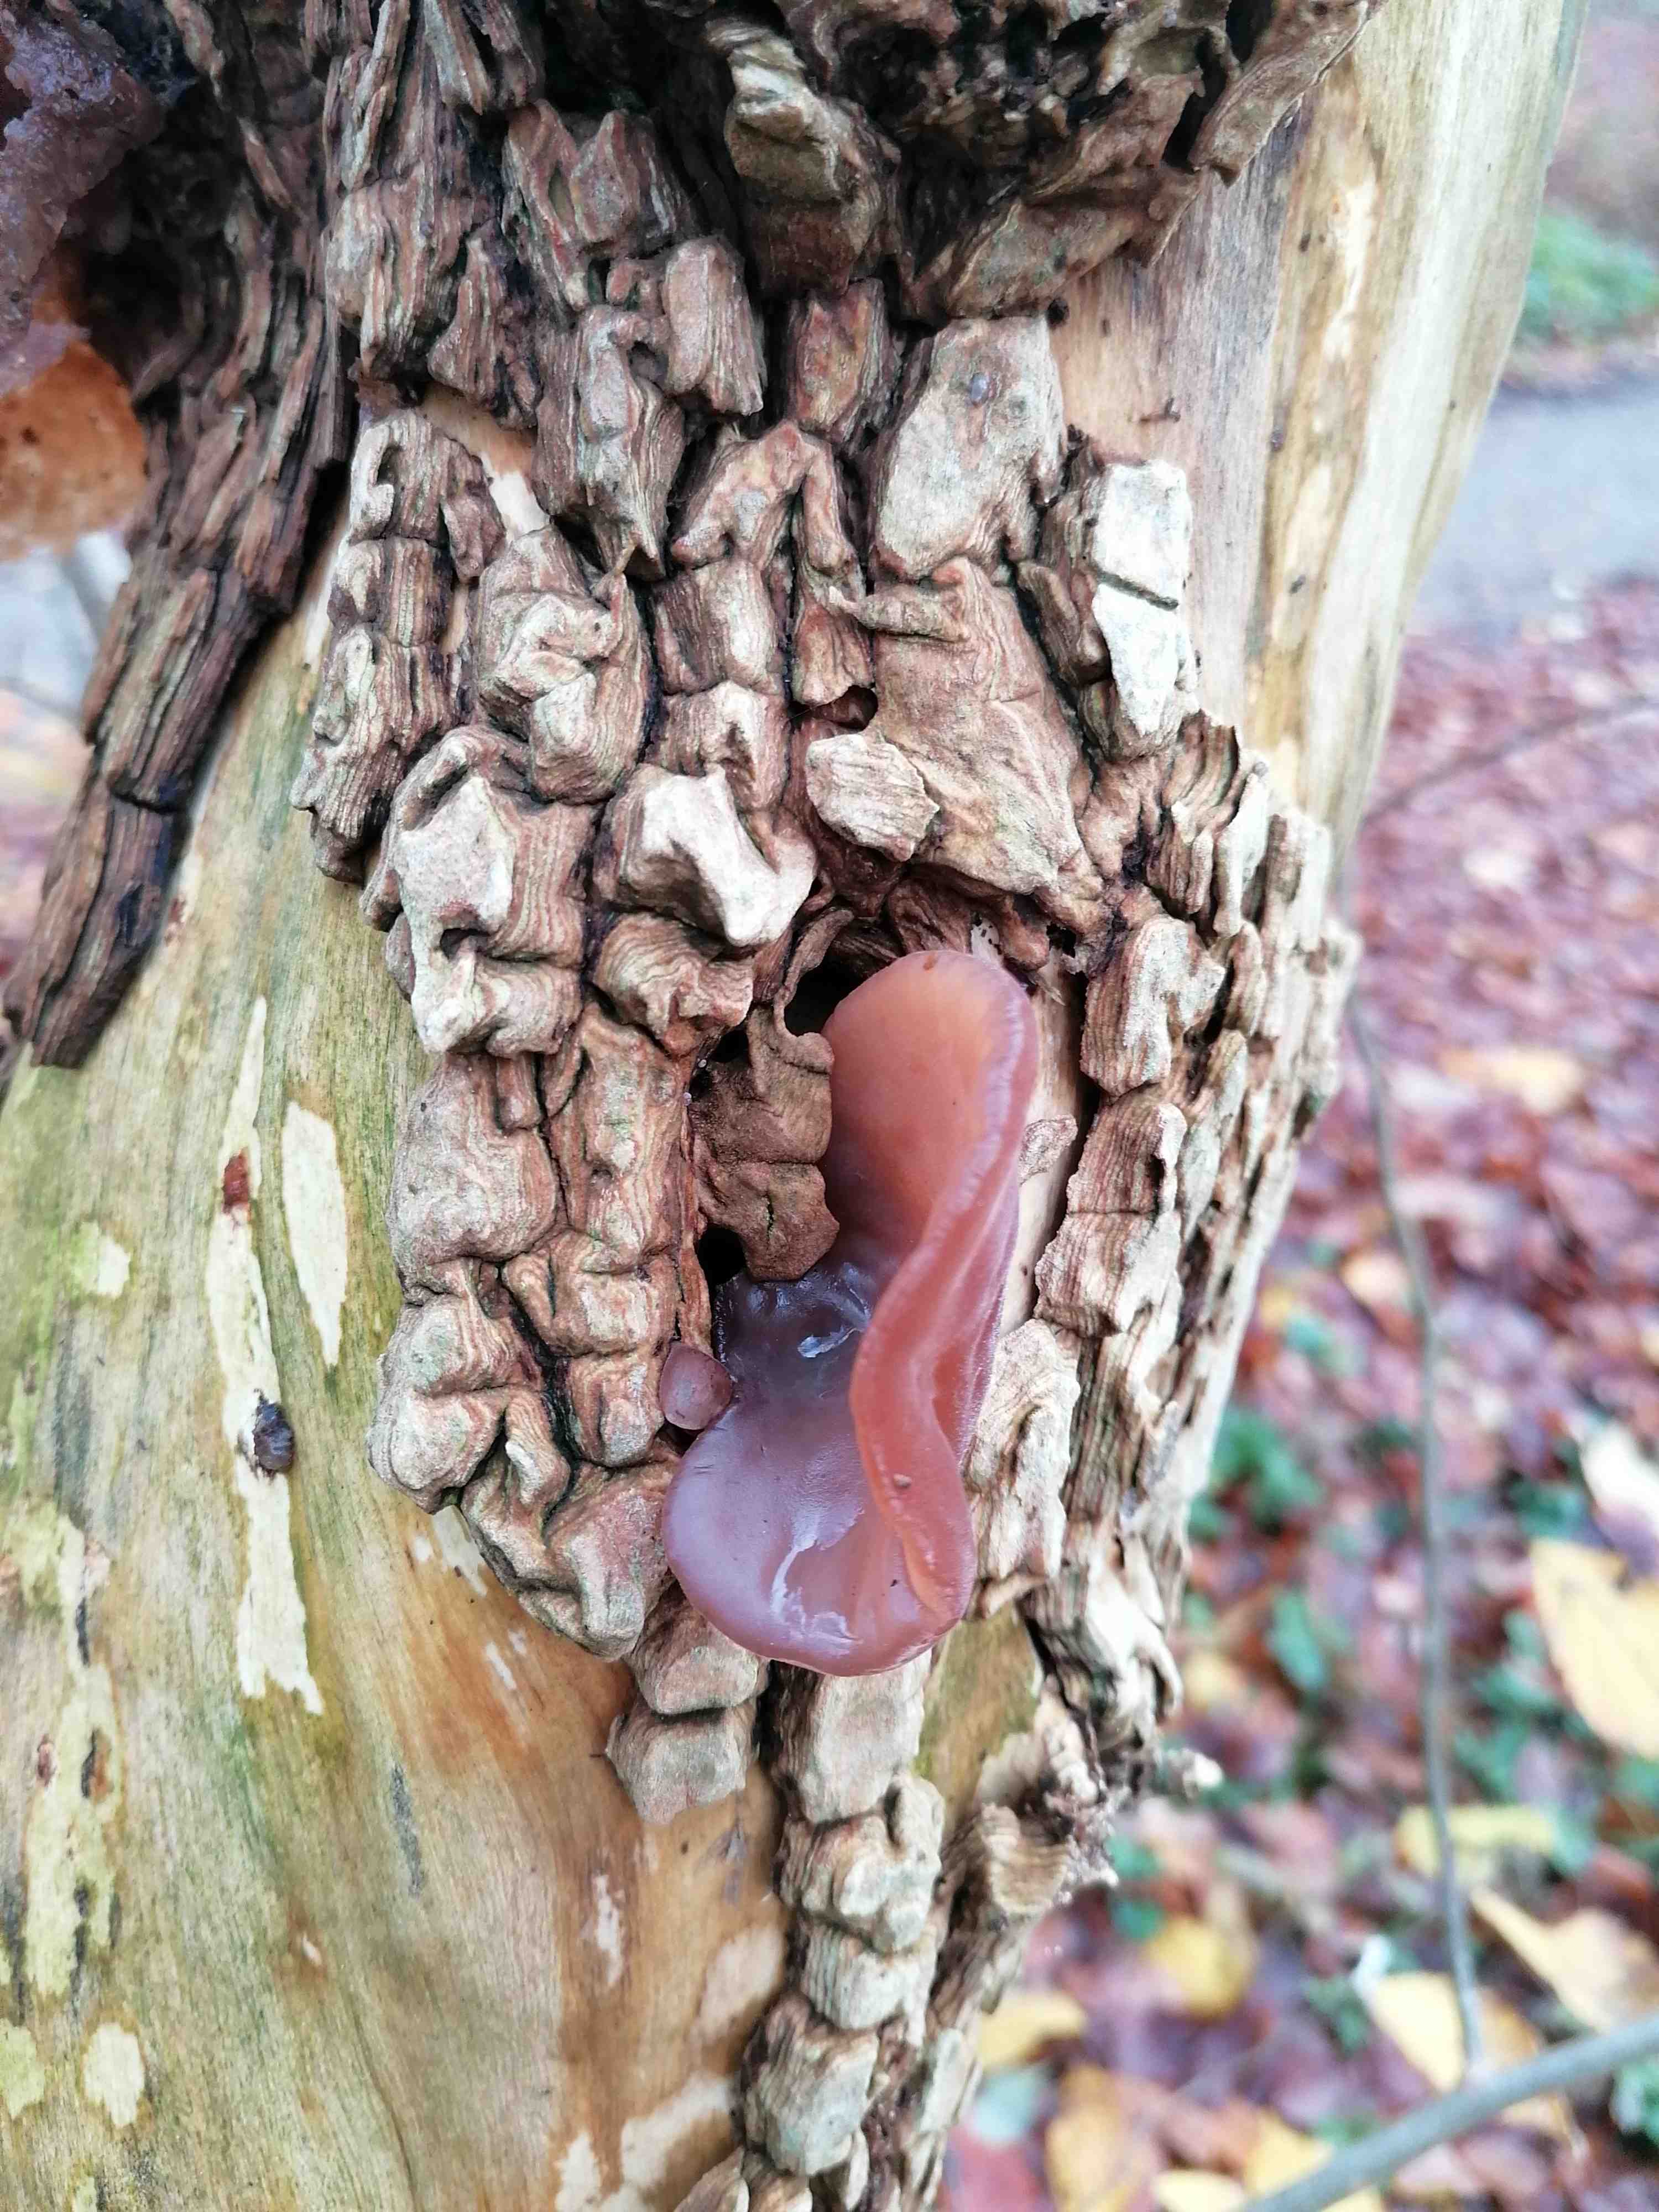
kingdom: Fungi
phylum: Basidiomycota
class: Agaricomycetes
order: Auriculariales
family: Auriculariaceae
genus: Auricularia
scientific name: Auricularia auricula-judae
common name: almindelig judasøre
